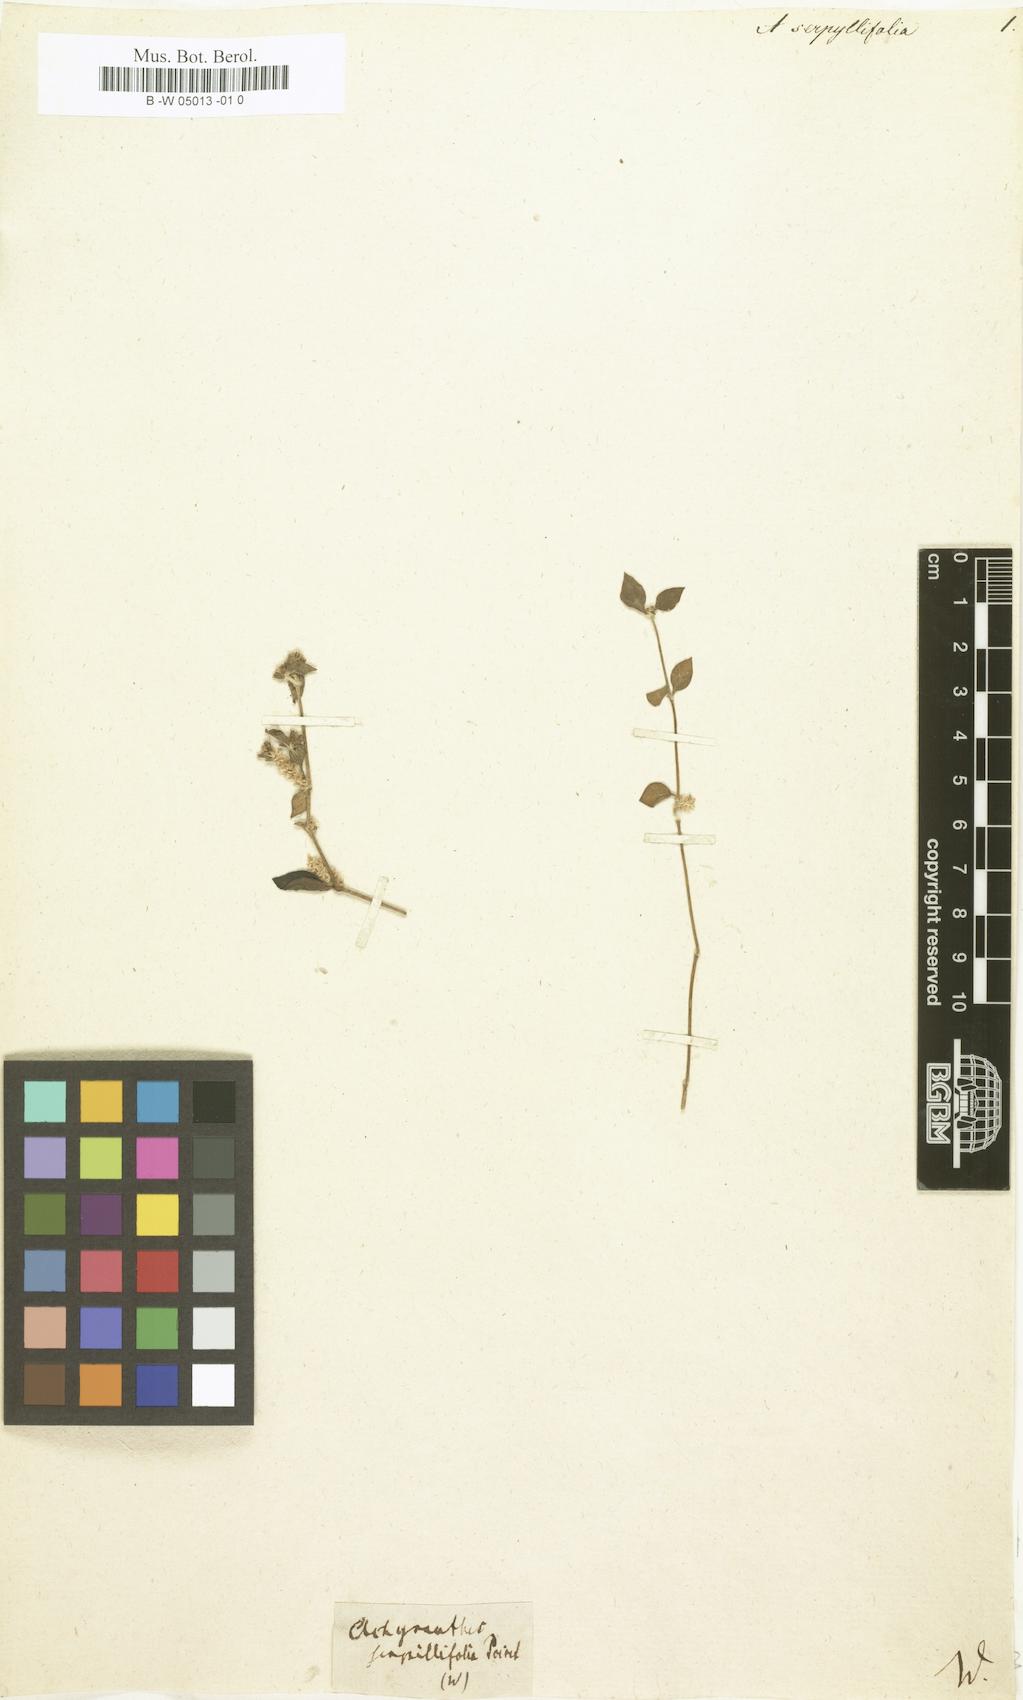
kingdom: Plantae
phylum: Tracheophyta
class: Magnoliopsida
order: Caryophyllales
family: Amaranthaceae
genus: Alternanthera
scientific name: Alternanthera serpyllifolia
